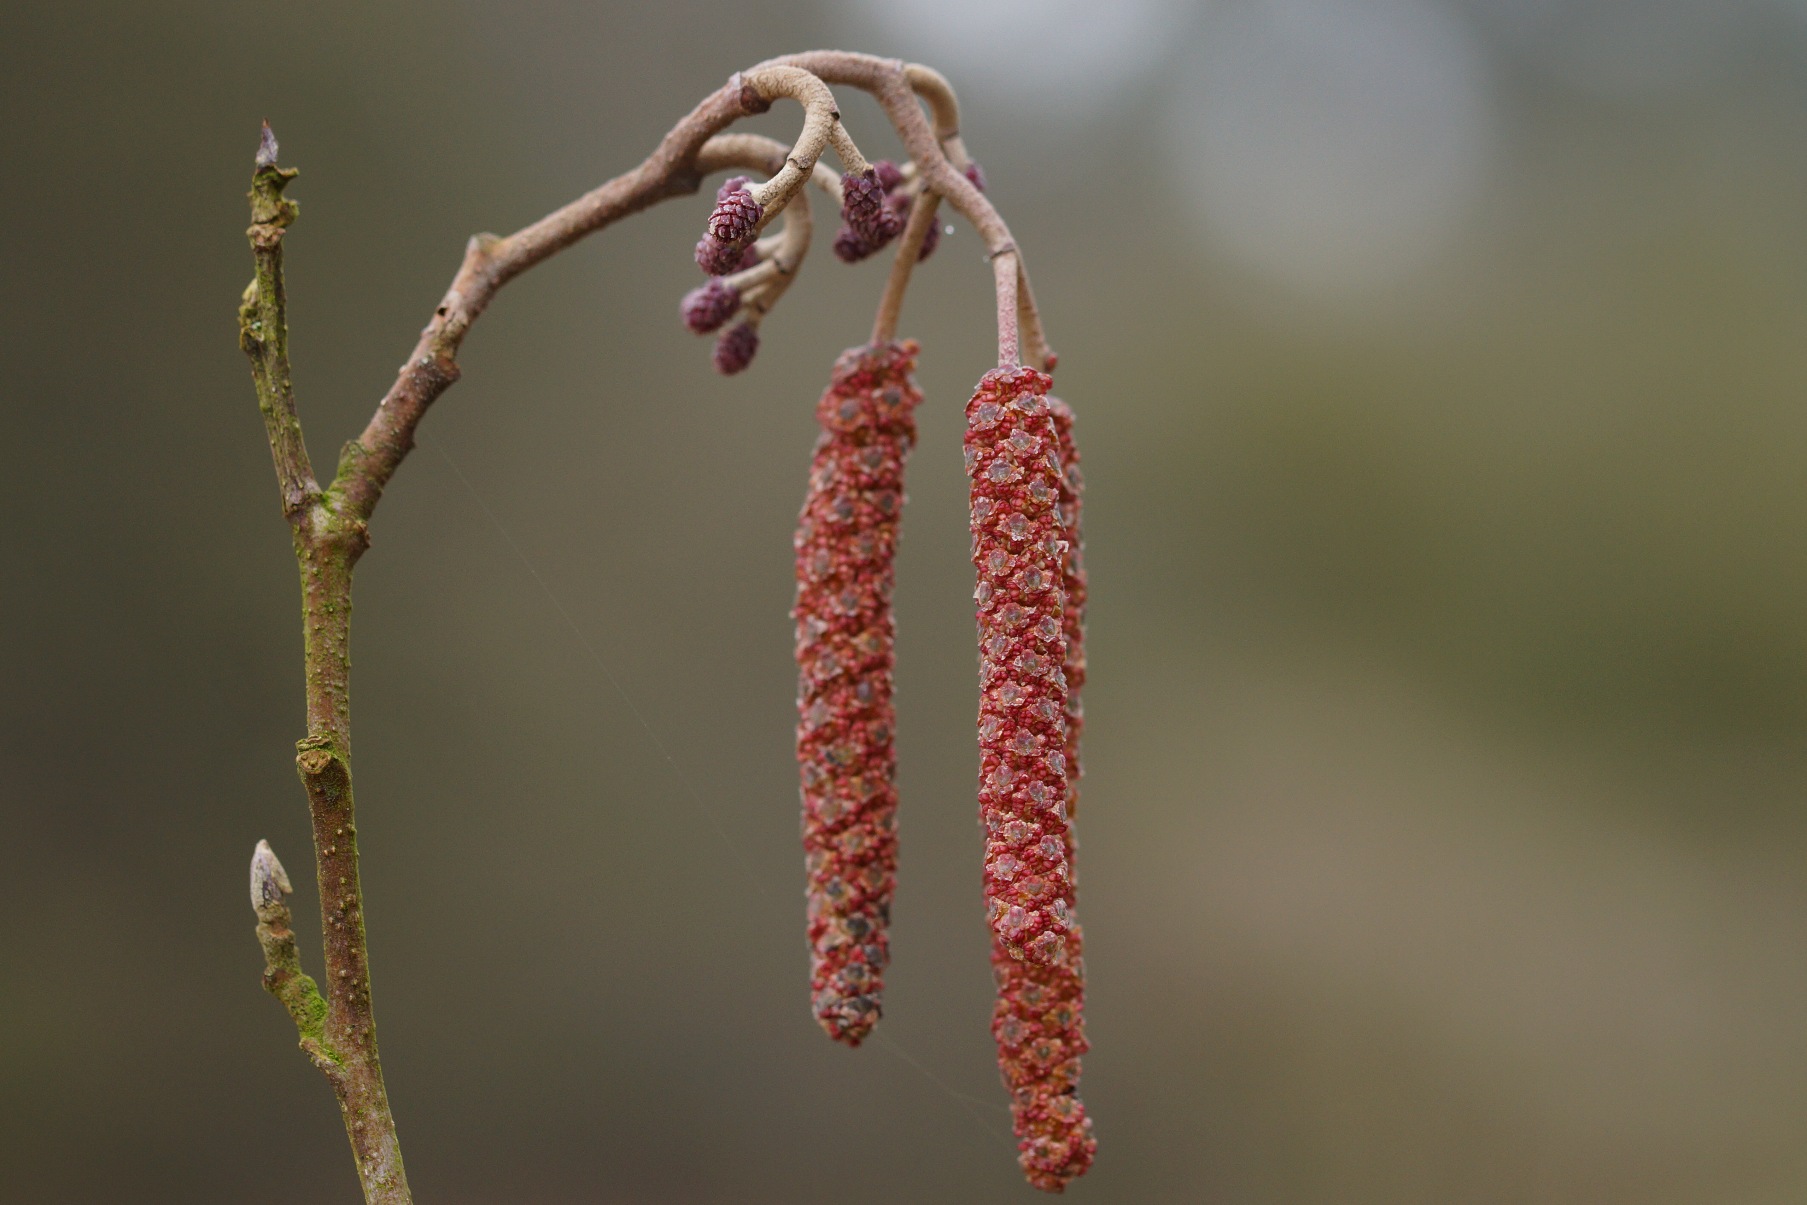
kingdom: Plantae
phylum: Tracheophyta
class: Magnoliopsida
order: Fagales
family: Betulaceae
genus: Alnus
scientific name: Alnus glutinosa
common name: Rød-el
